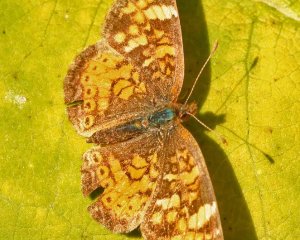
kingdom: Animalia
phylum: Arthropoda
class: Insecta
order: Lepidoptera
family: Nymphalidae
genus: Phyciodes
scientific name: Phyciodes tharos
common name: Northern Crescent
